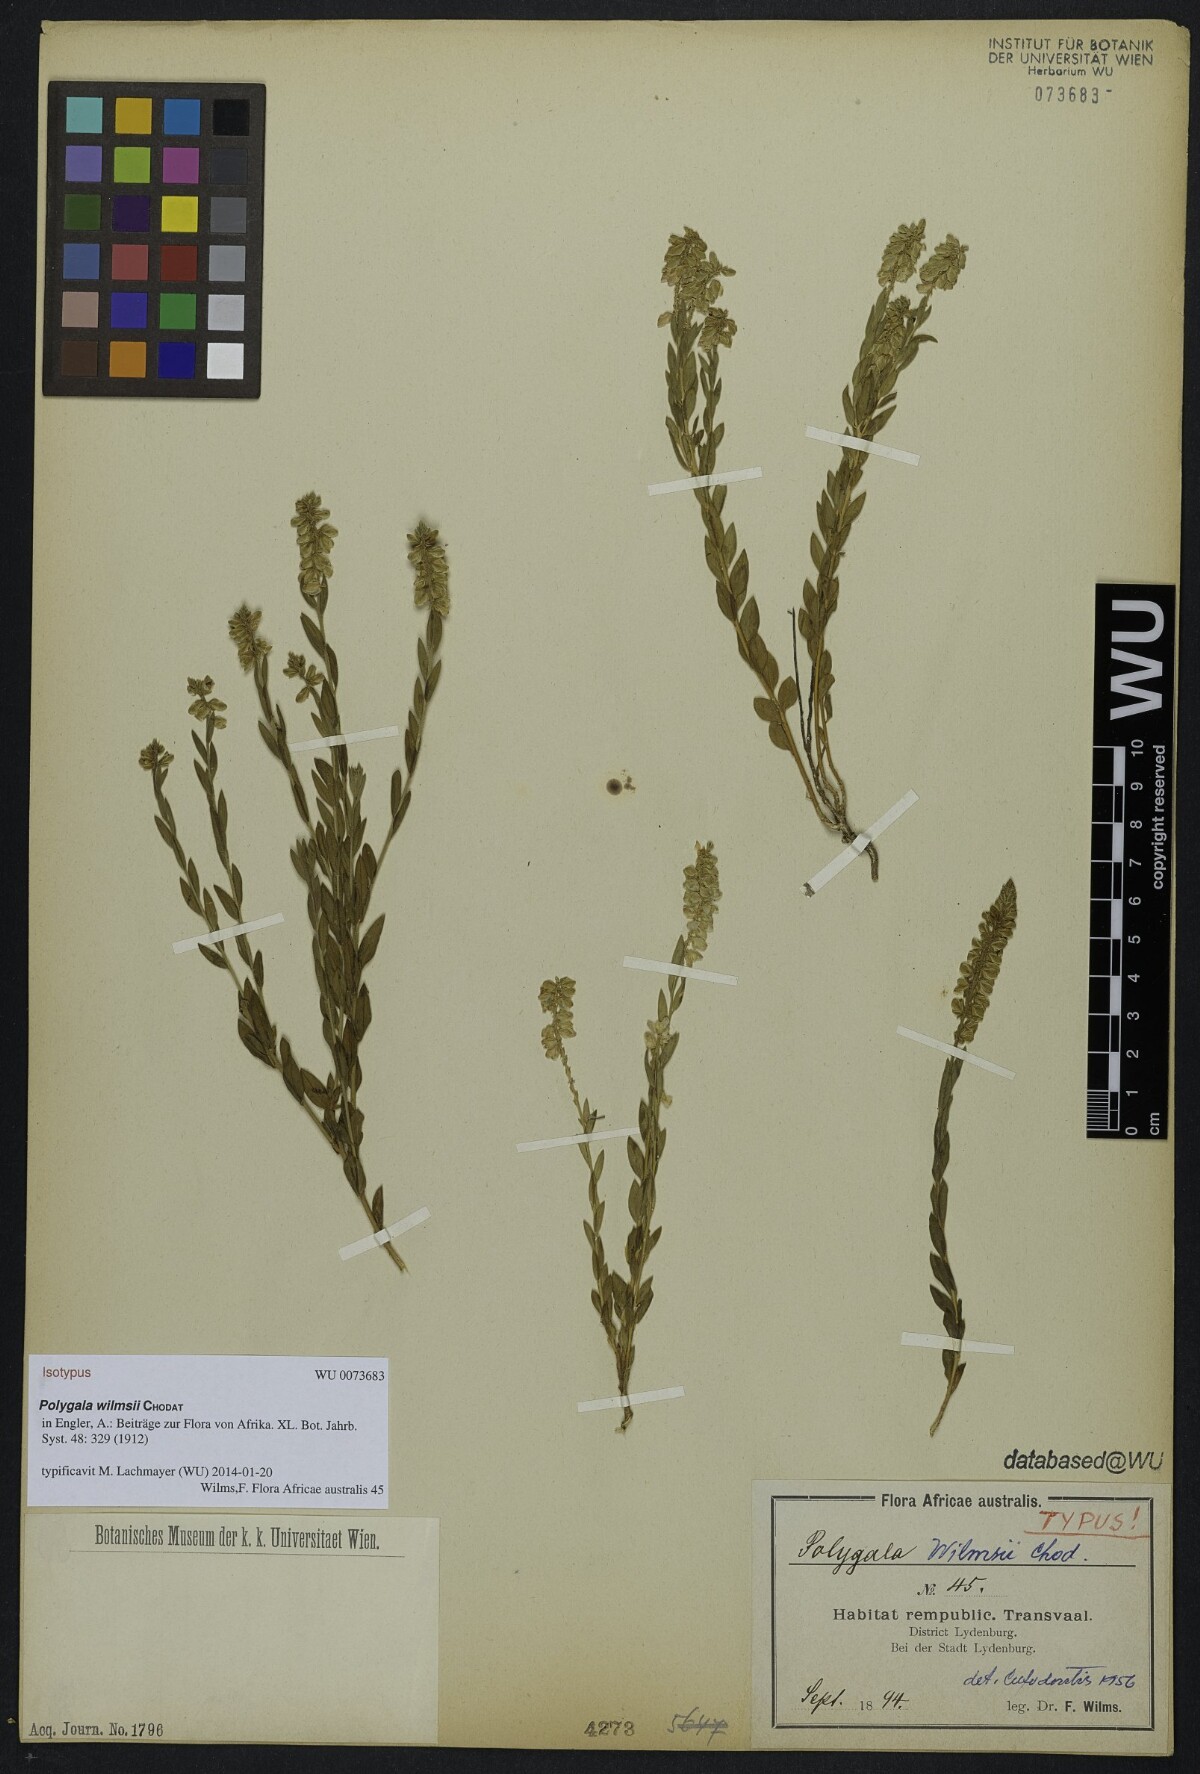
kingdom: Plantae
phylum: Tracheophyta
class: Magnoliopsida
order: Fabales
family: Polygalaceae
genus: Polygala
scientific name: Polygala wilmsii
